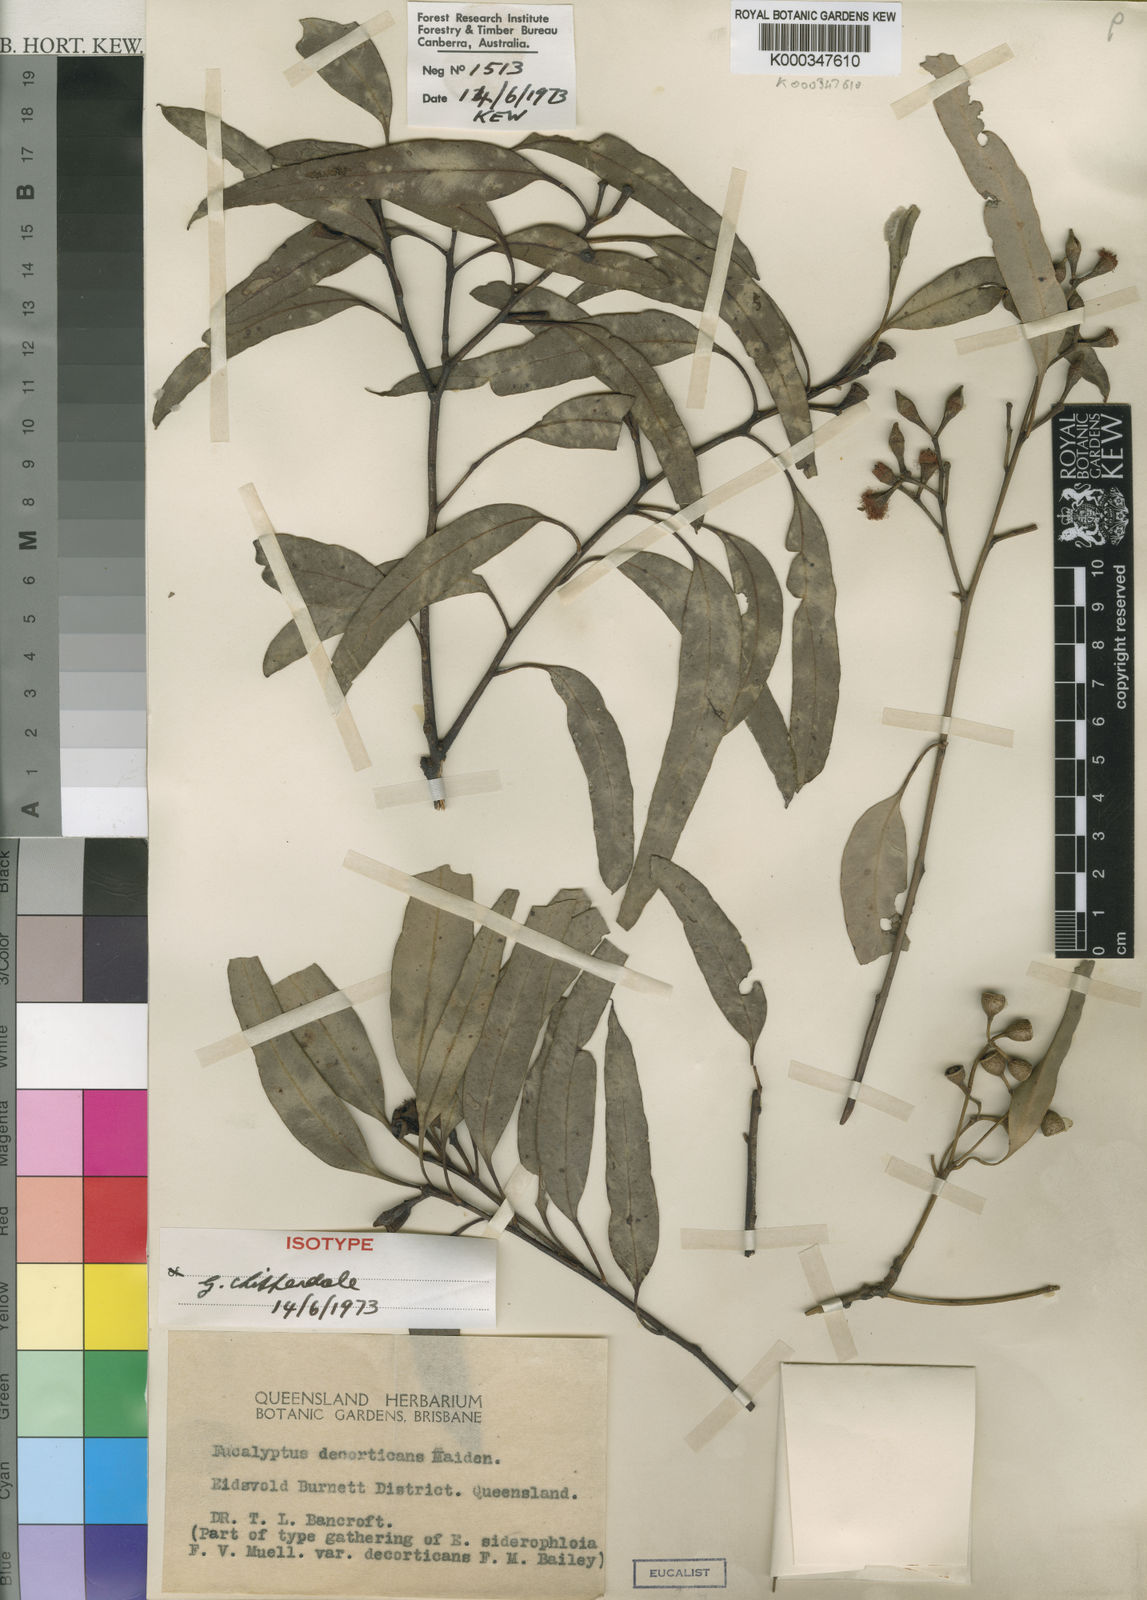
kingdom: Plantae
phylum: Tracheophyta
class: Magnoliopsida
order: Myrtales
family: Myrtaceae
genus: Eucalyptus
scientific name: Eucalyptus decorticans
